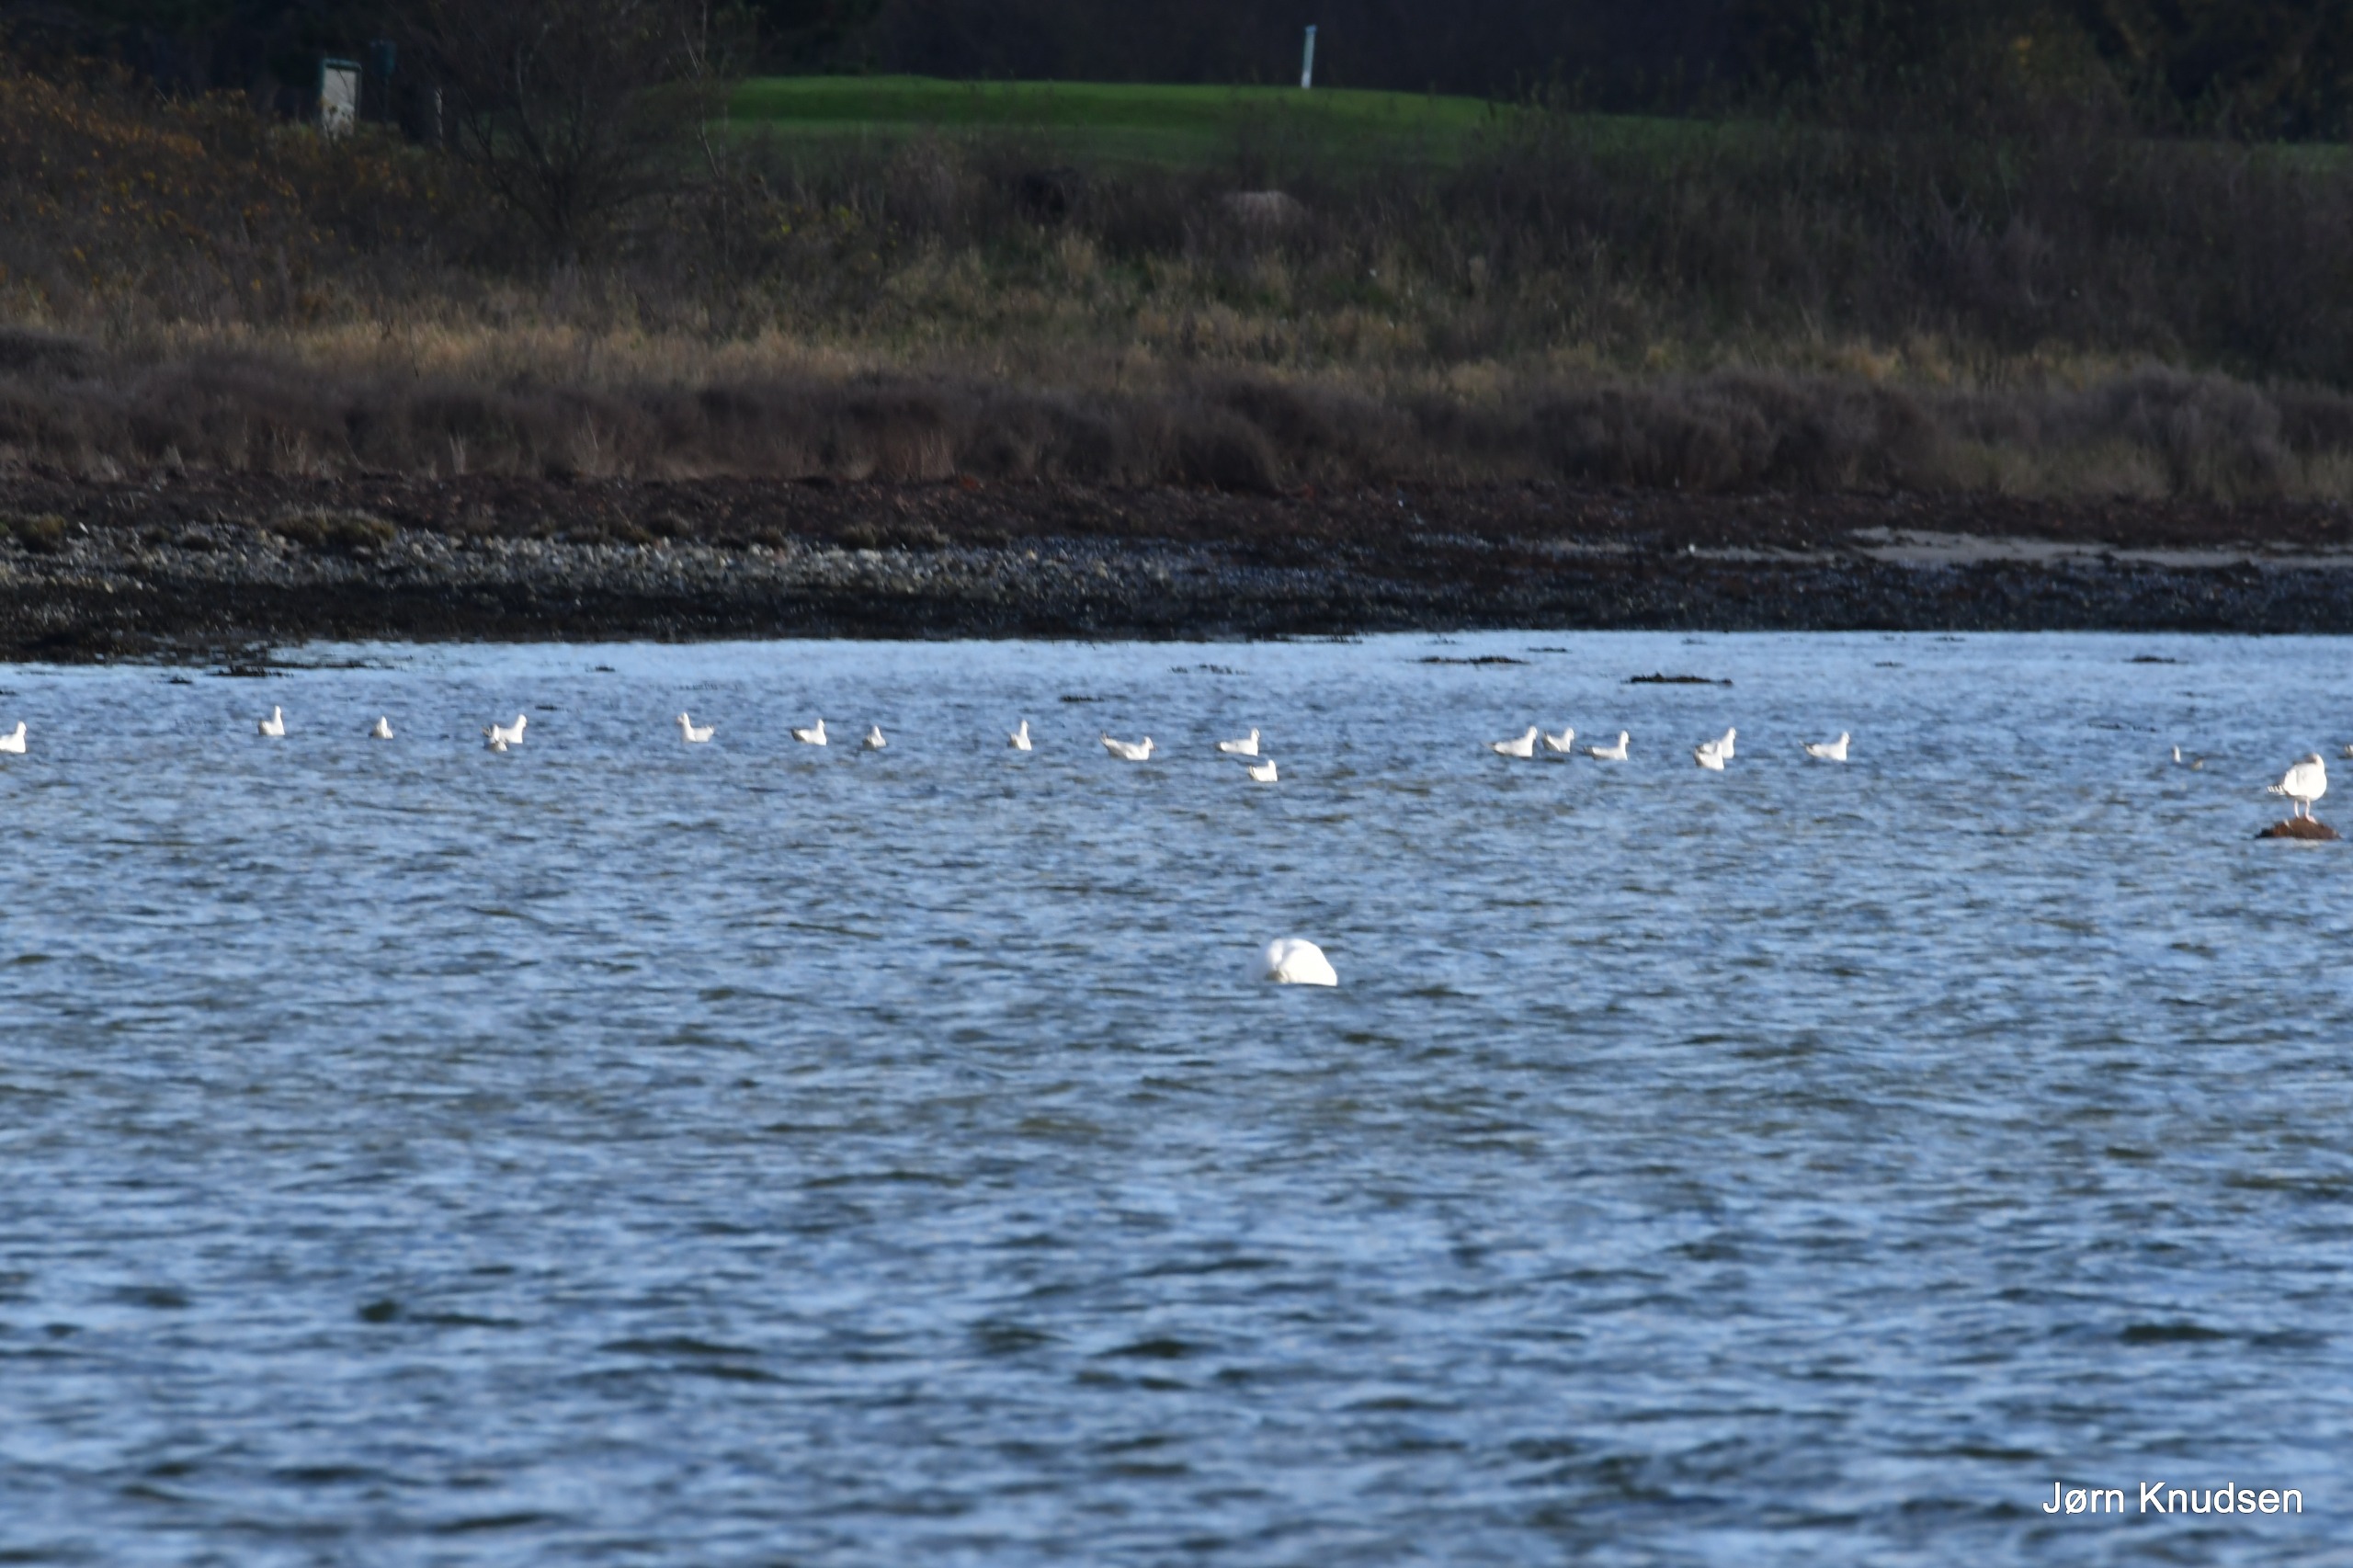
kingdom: Animalia
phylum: Chordata
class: Aves
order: Charadriiformes
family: Laridae
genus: Chroicocephalus
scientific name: Chroicocephalus ridibundus
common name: Hættemåge
